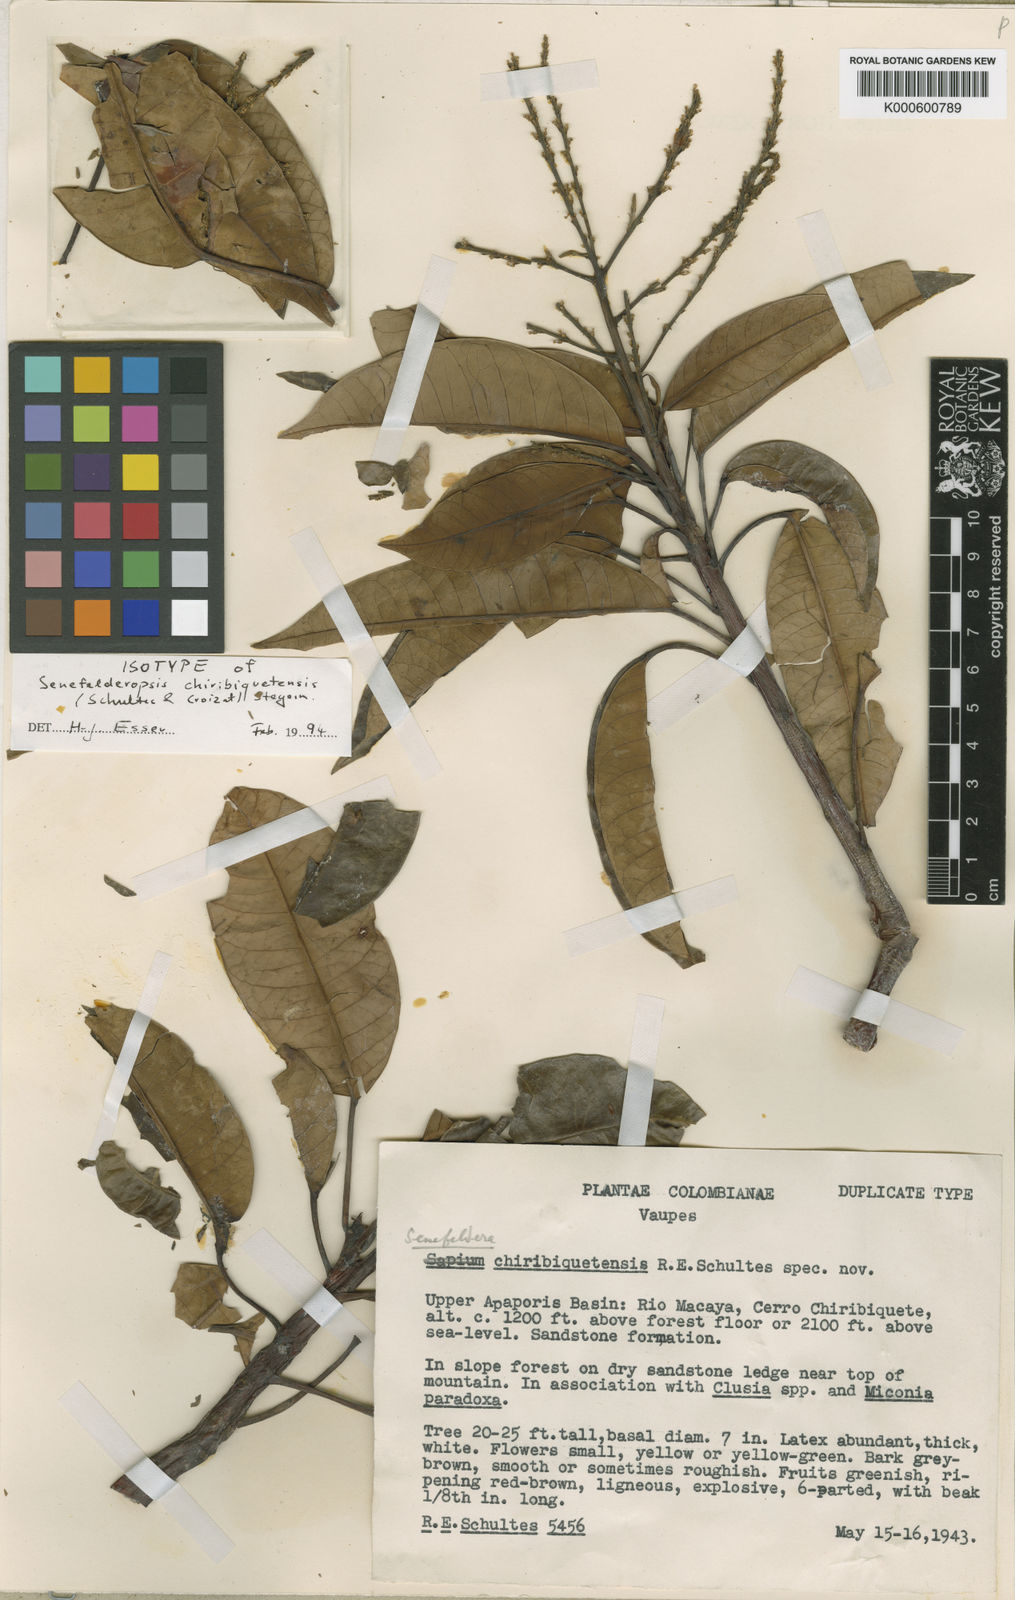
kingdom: Plantae
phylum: Tracheophyta
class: Magnoliopsida
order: Malpighiales
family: Euphorbiaceae
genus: Senefelderopsis
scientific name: Senefelderopsis chiribiquetensis
